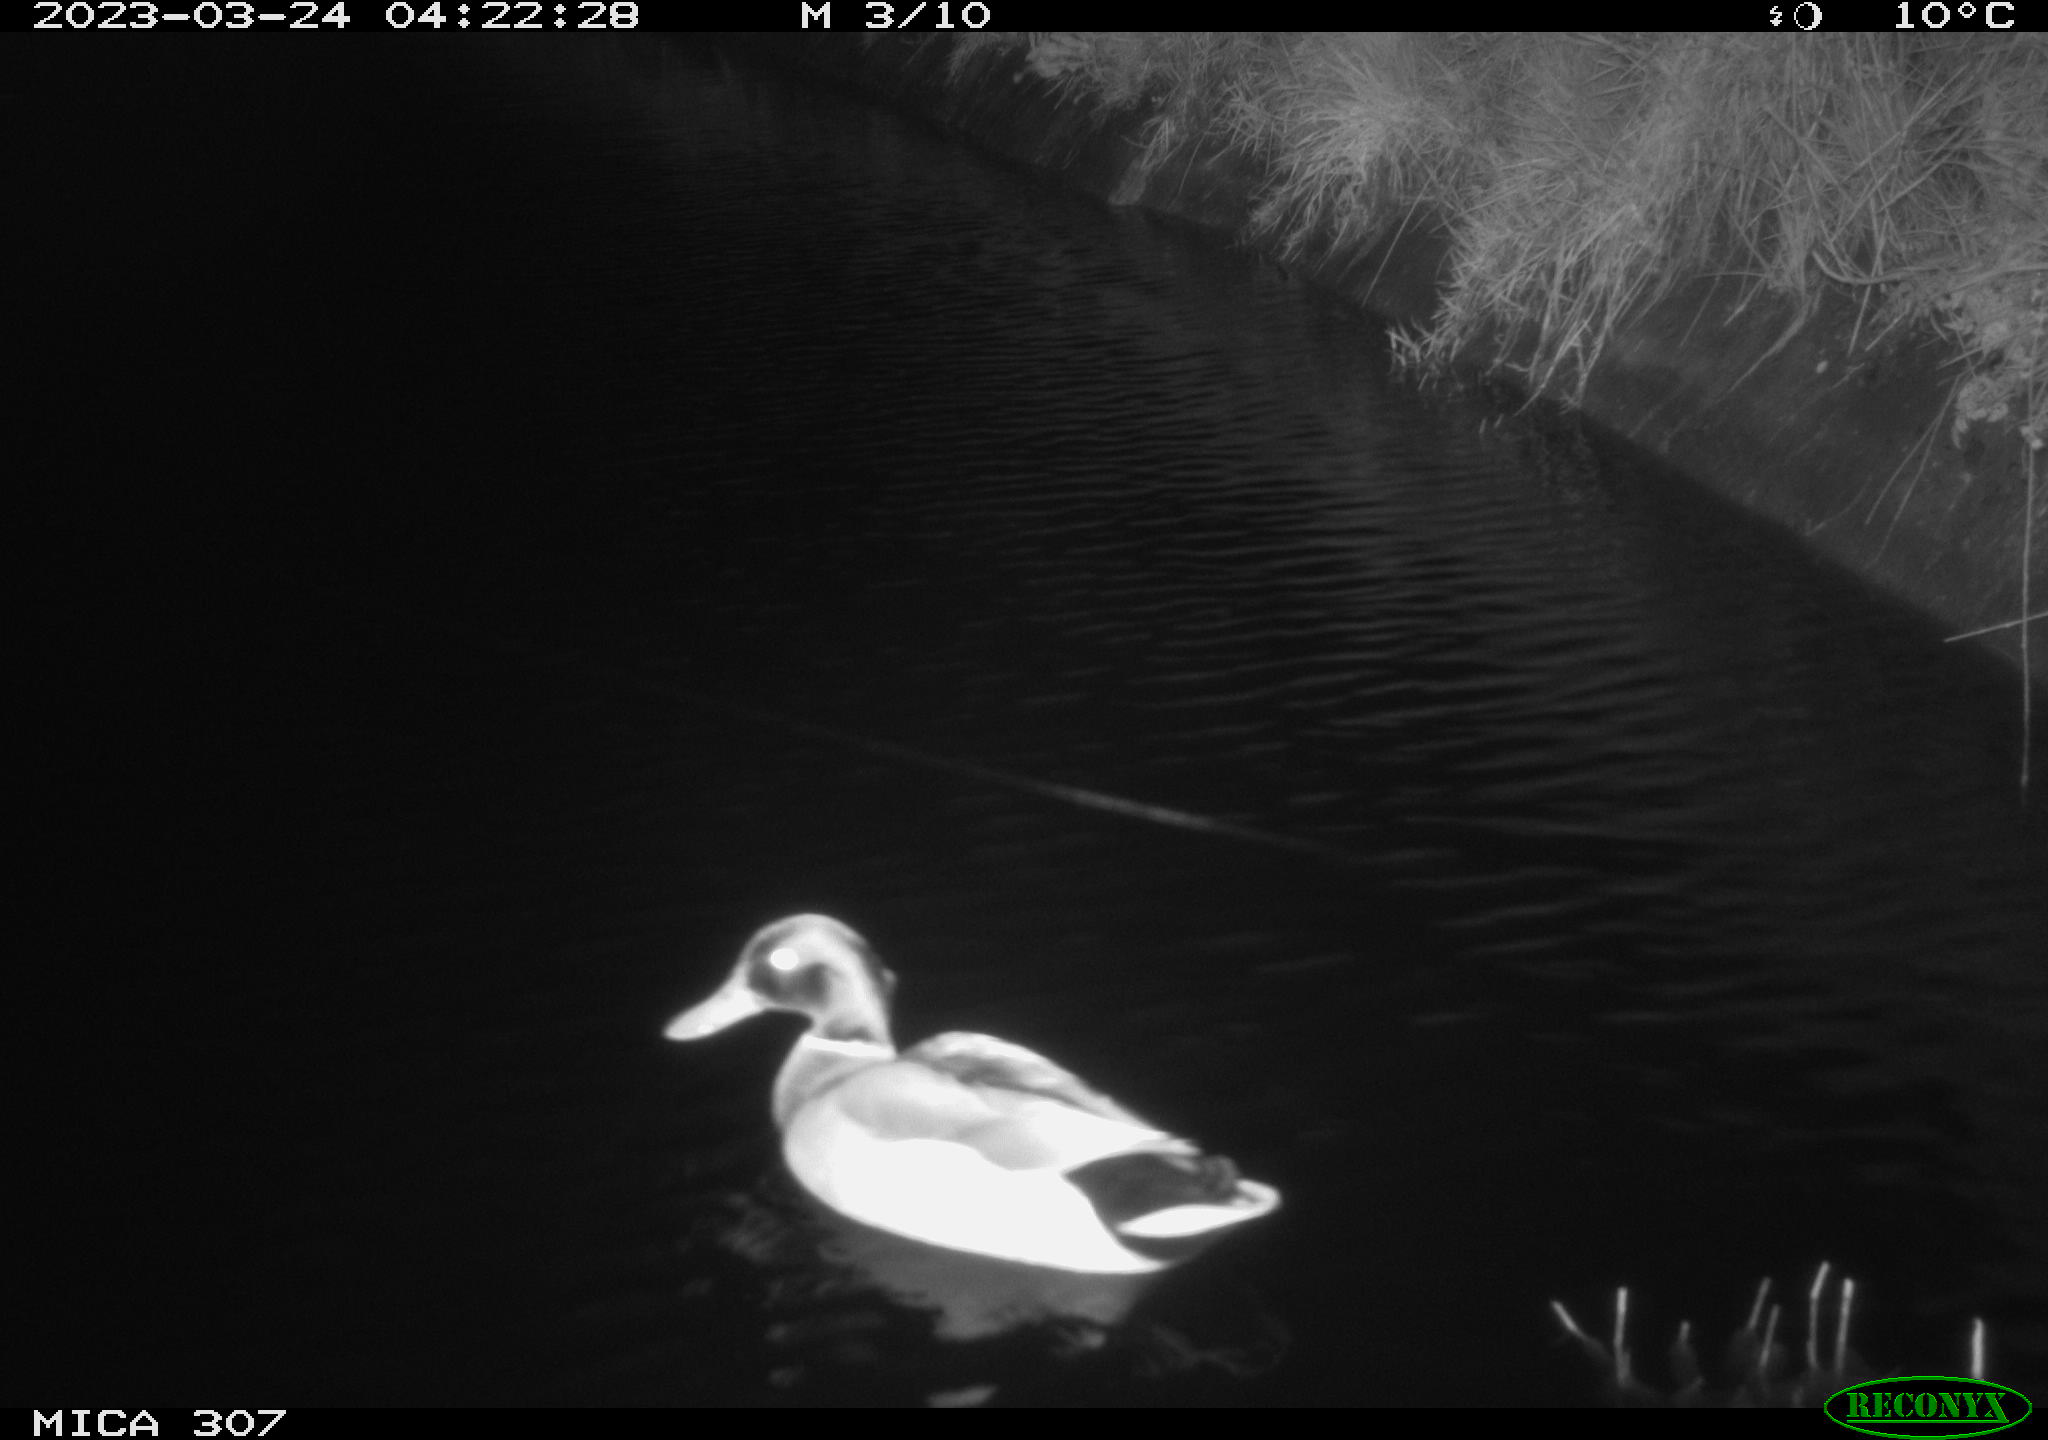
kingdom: Animalia
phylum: Chordata
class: Aves
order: Anseriformes
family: Anatidae
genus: Anas
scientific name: Anas
